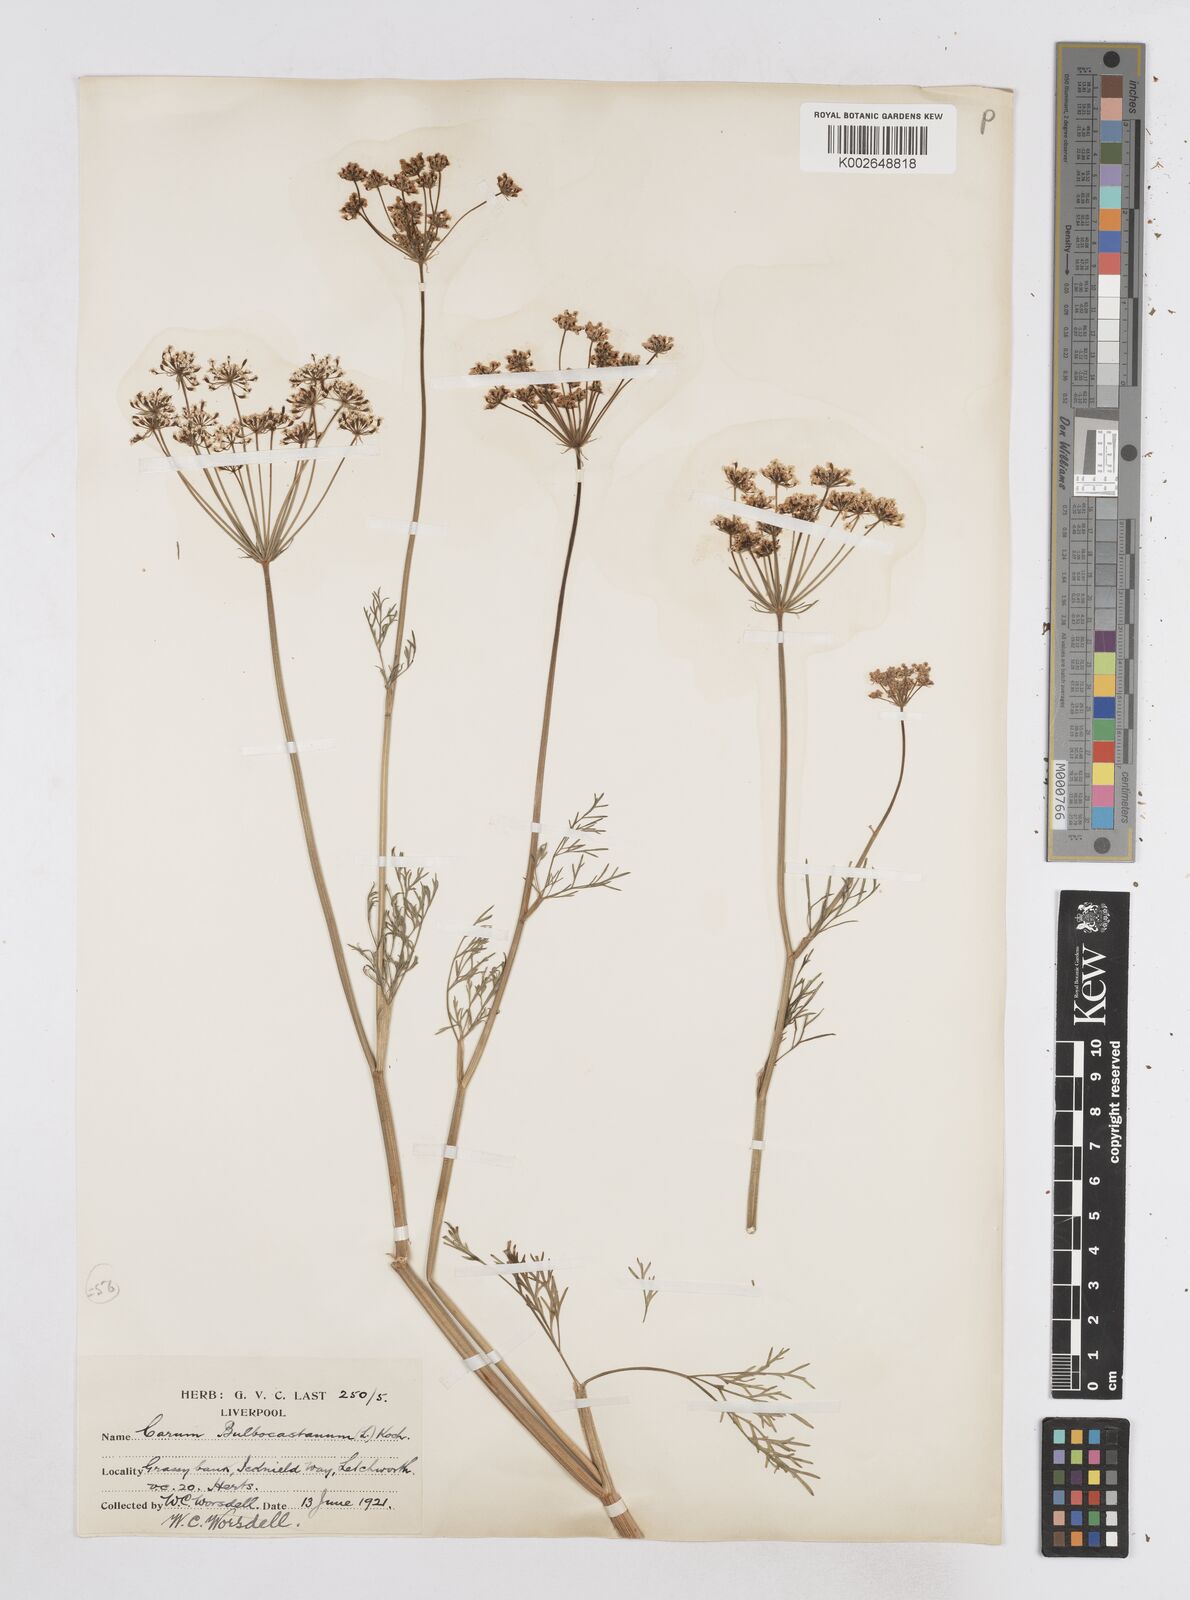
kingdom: Plantae
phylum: Tracheophyta
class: Magnoliopsida
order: Apiales
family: Apiaceae
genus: Bunium
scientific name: Bunium bulbocastanum
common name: Great pignut
